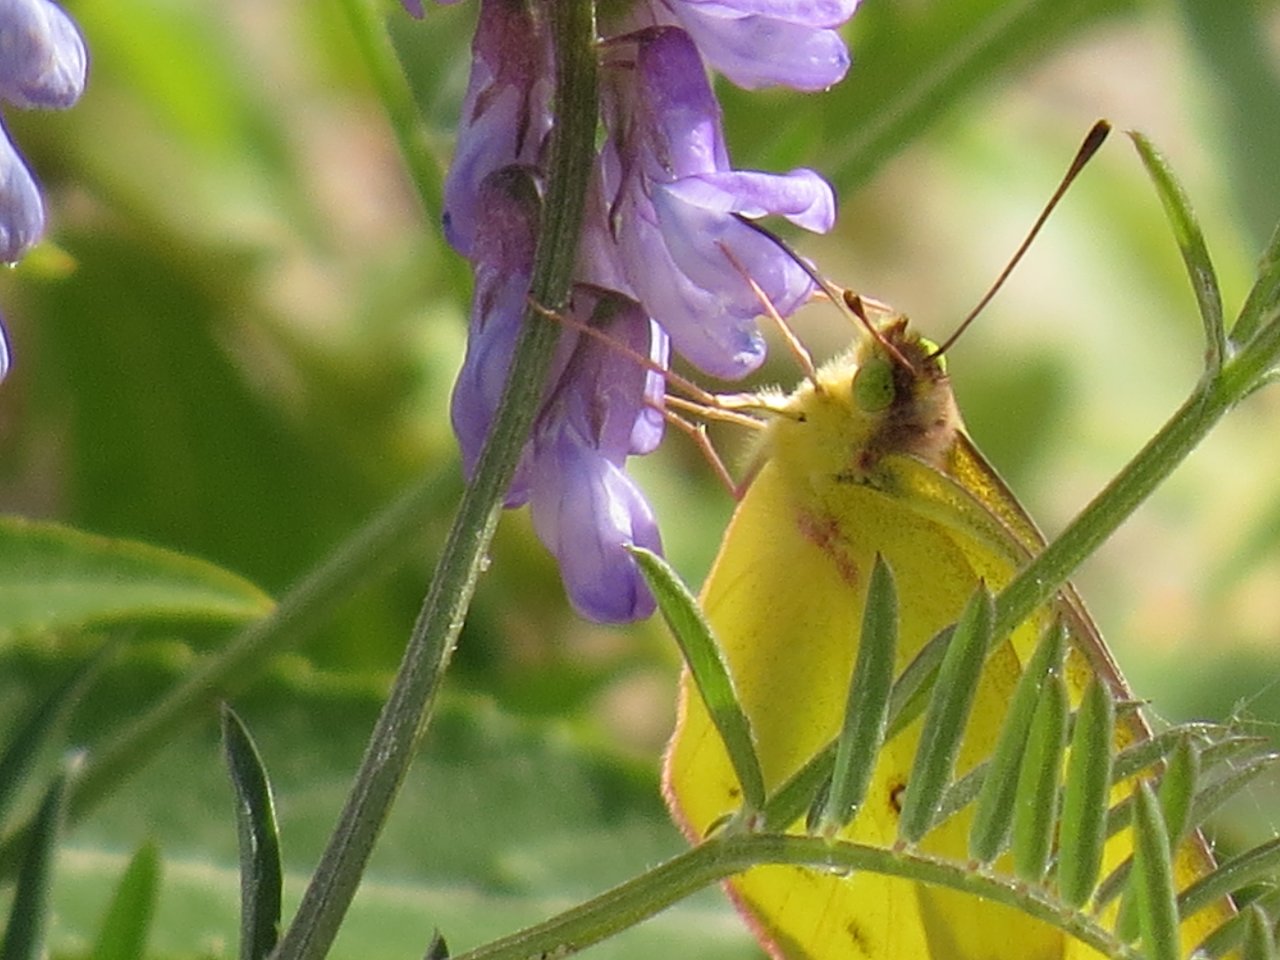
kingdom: Animalia
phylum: Arthropoda
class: Insecta
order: Lepidoptera
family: Pieridae
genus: Colias
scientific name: Colias philodice
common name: Clouded Sulphur
